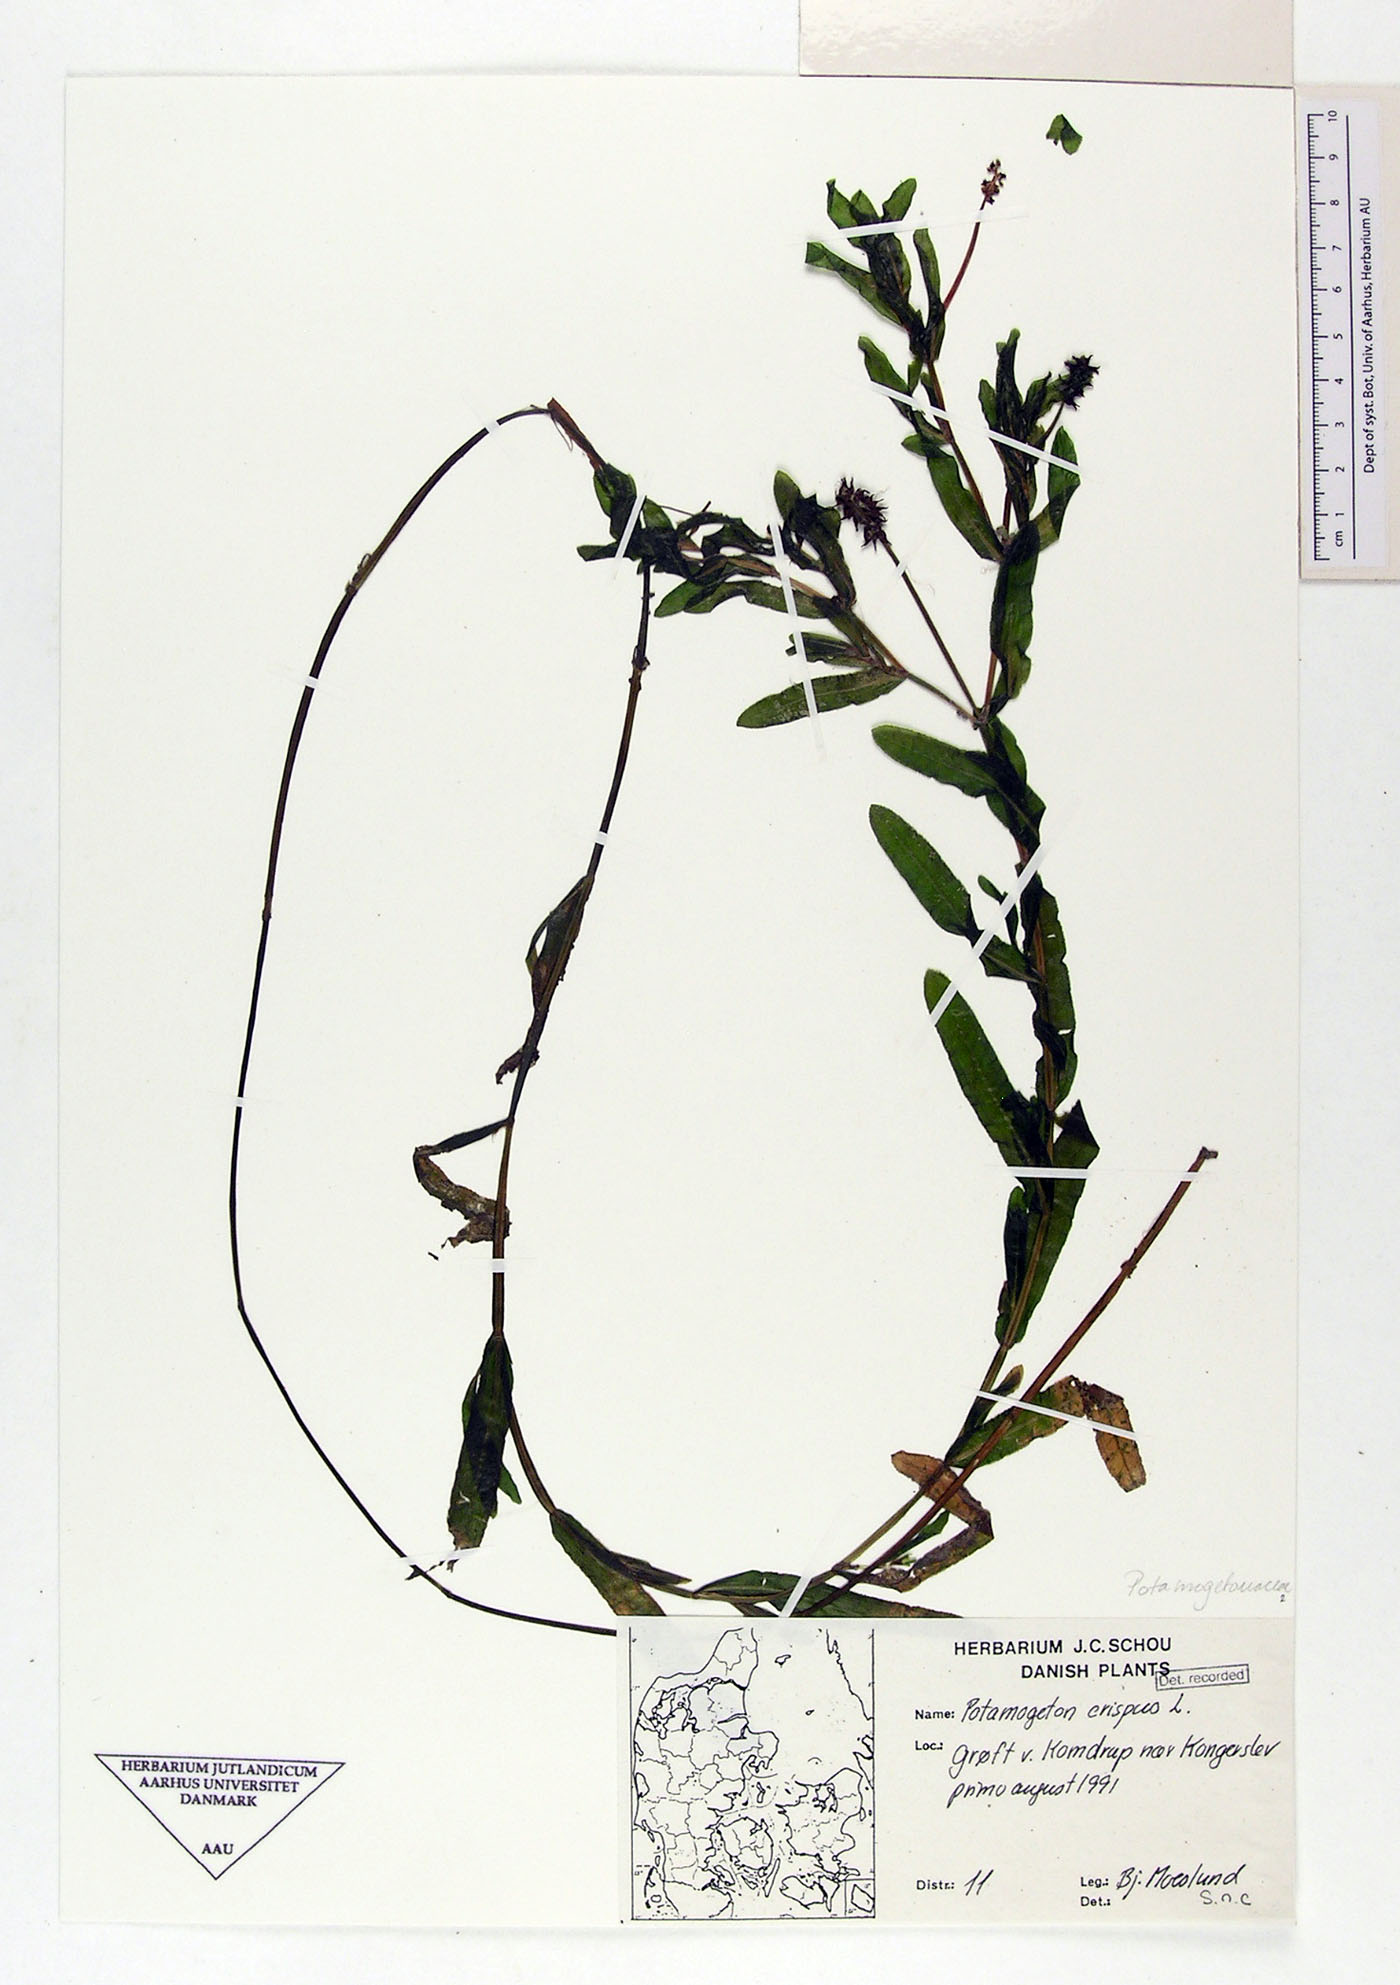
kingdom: Plantae
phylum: Tracheophyta
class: Liliopsida
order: Alismatales
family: Potamogetonaceae
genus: Potamogeton
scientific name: Potamogeton crispus
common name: Curled pondweed
